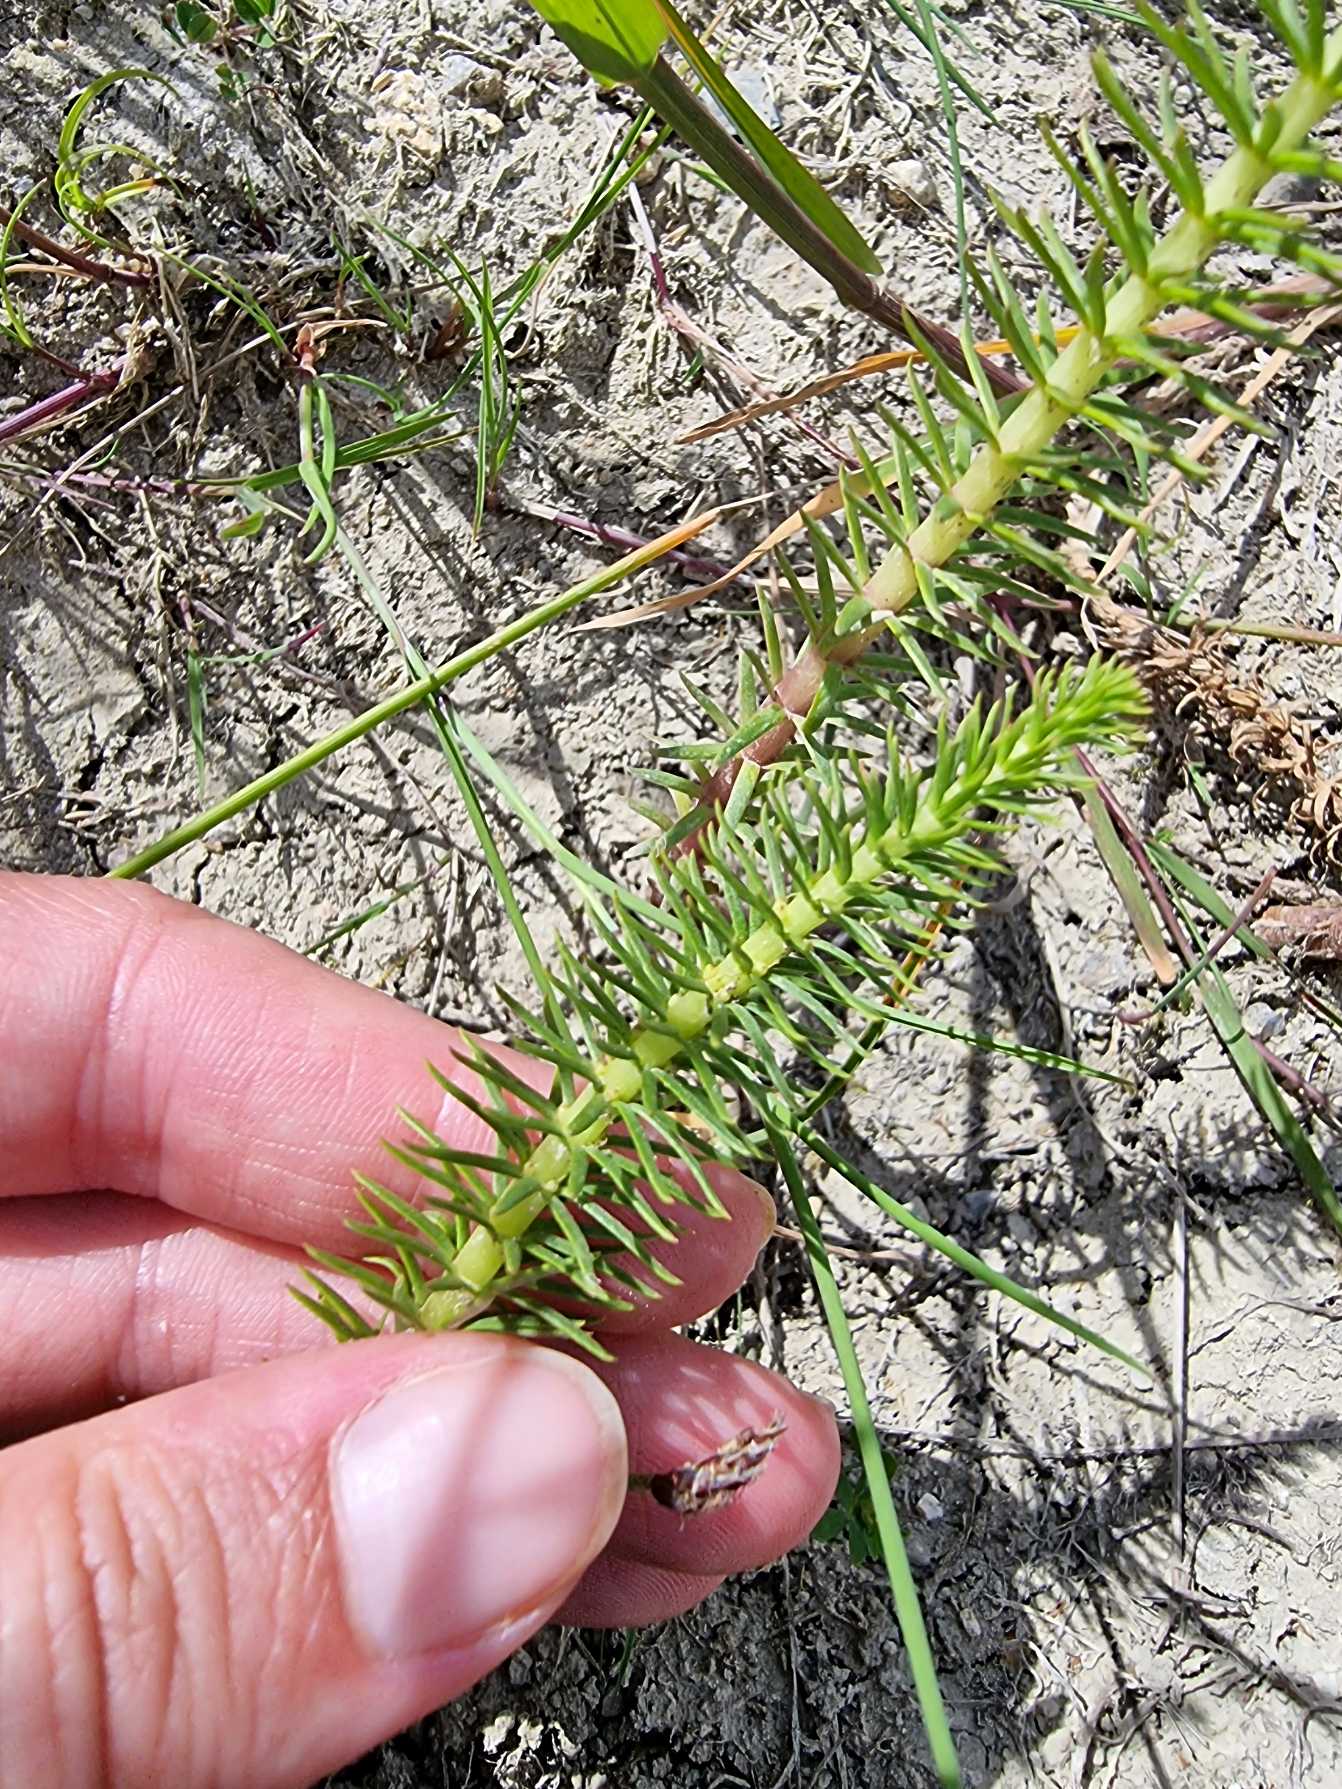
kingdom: Plantae
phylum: Tracheophyta
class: Magnoliopsida
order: Lamiales
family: Plantaginaceae
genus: Hippuris
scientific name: Hippuris vulgaris
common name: Vandspir
